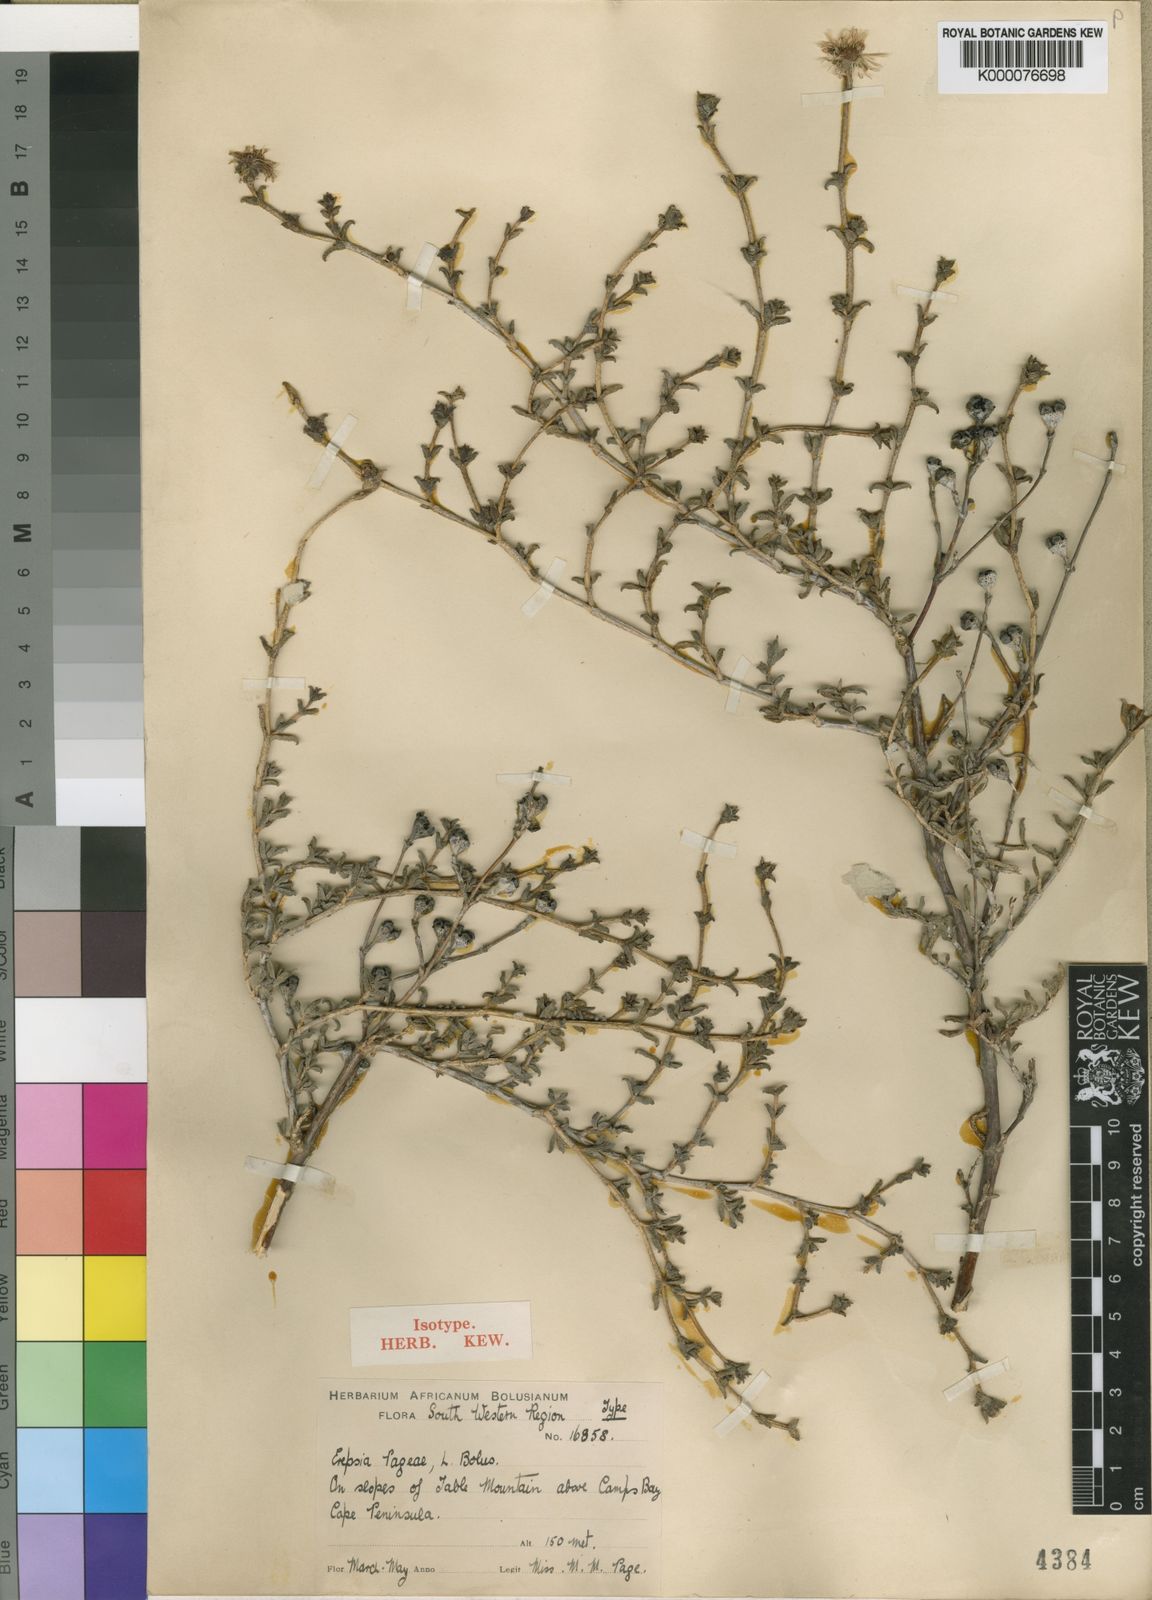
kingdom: Plantae
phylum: Tracheophyta
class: Magnoliopsida
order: Caryophyllales
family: Aizoaceae
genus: Erepsia
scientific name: Erepsia patula
